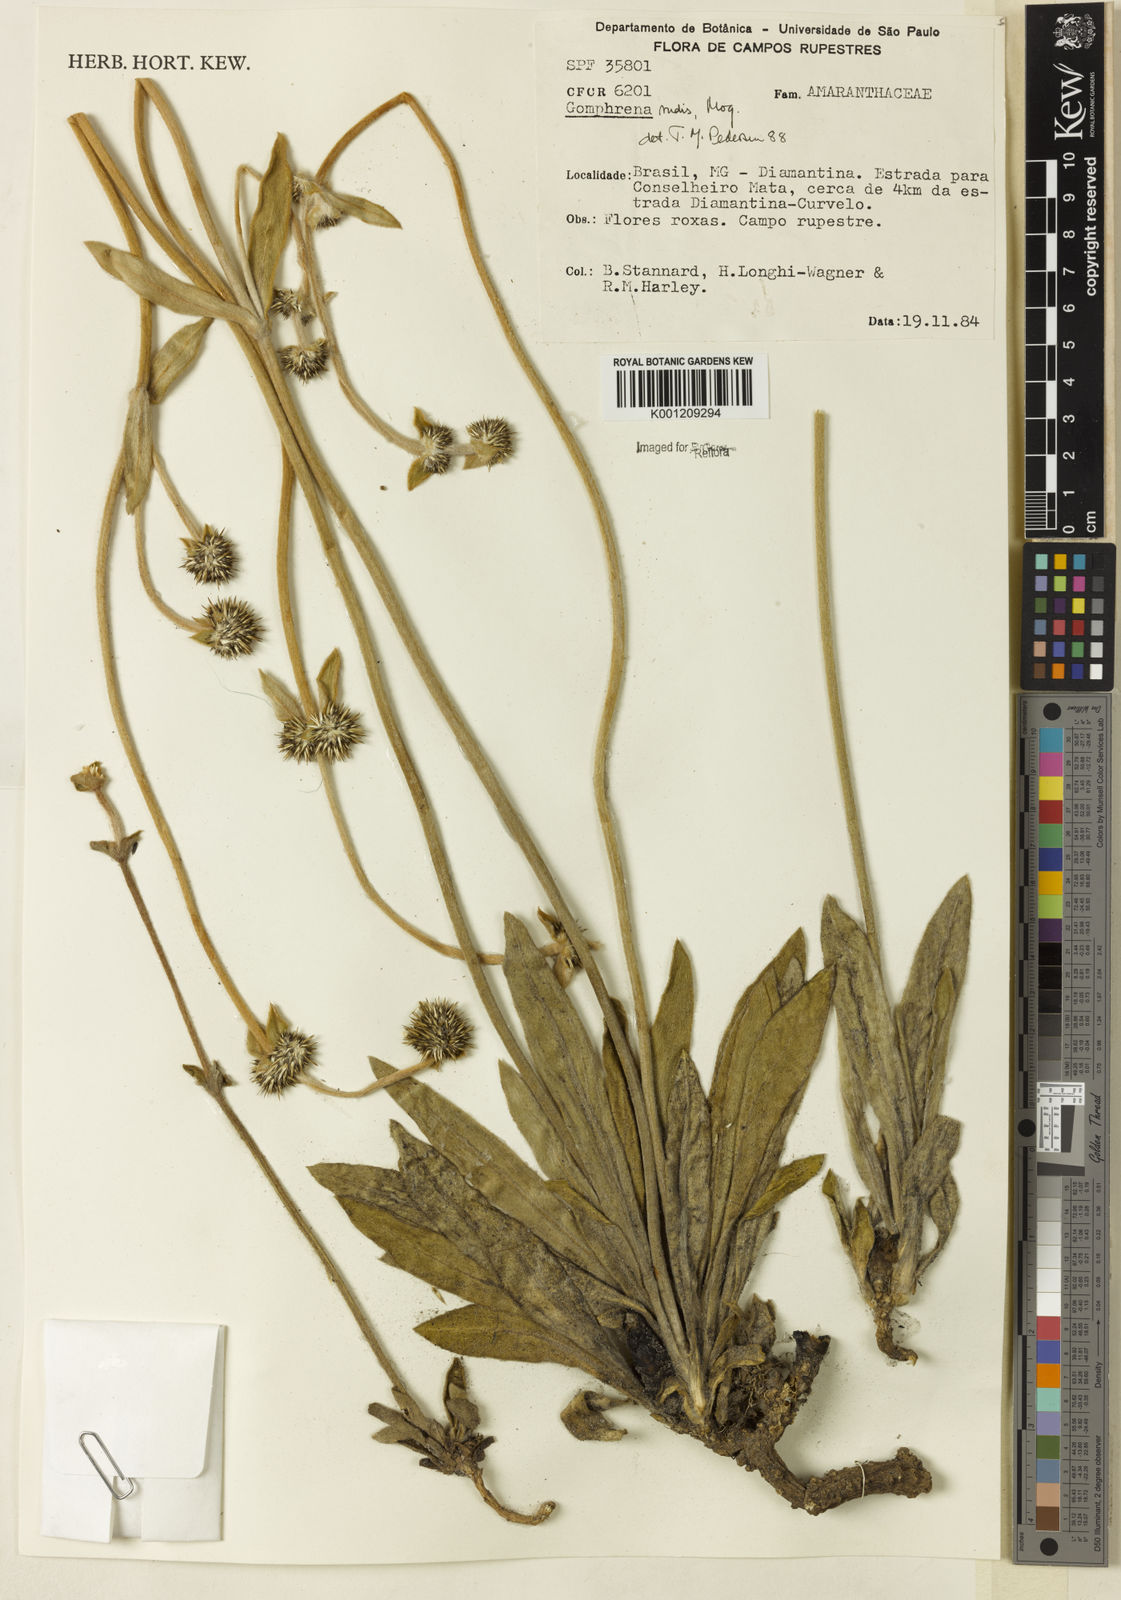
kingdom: Plantae
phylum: Tracheophyta
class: Magnoliopsida
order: Caryophyllales
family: Amaranthaceae
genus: Gomphrena
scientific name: Gomphrena rudis
